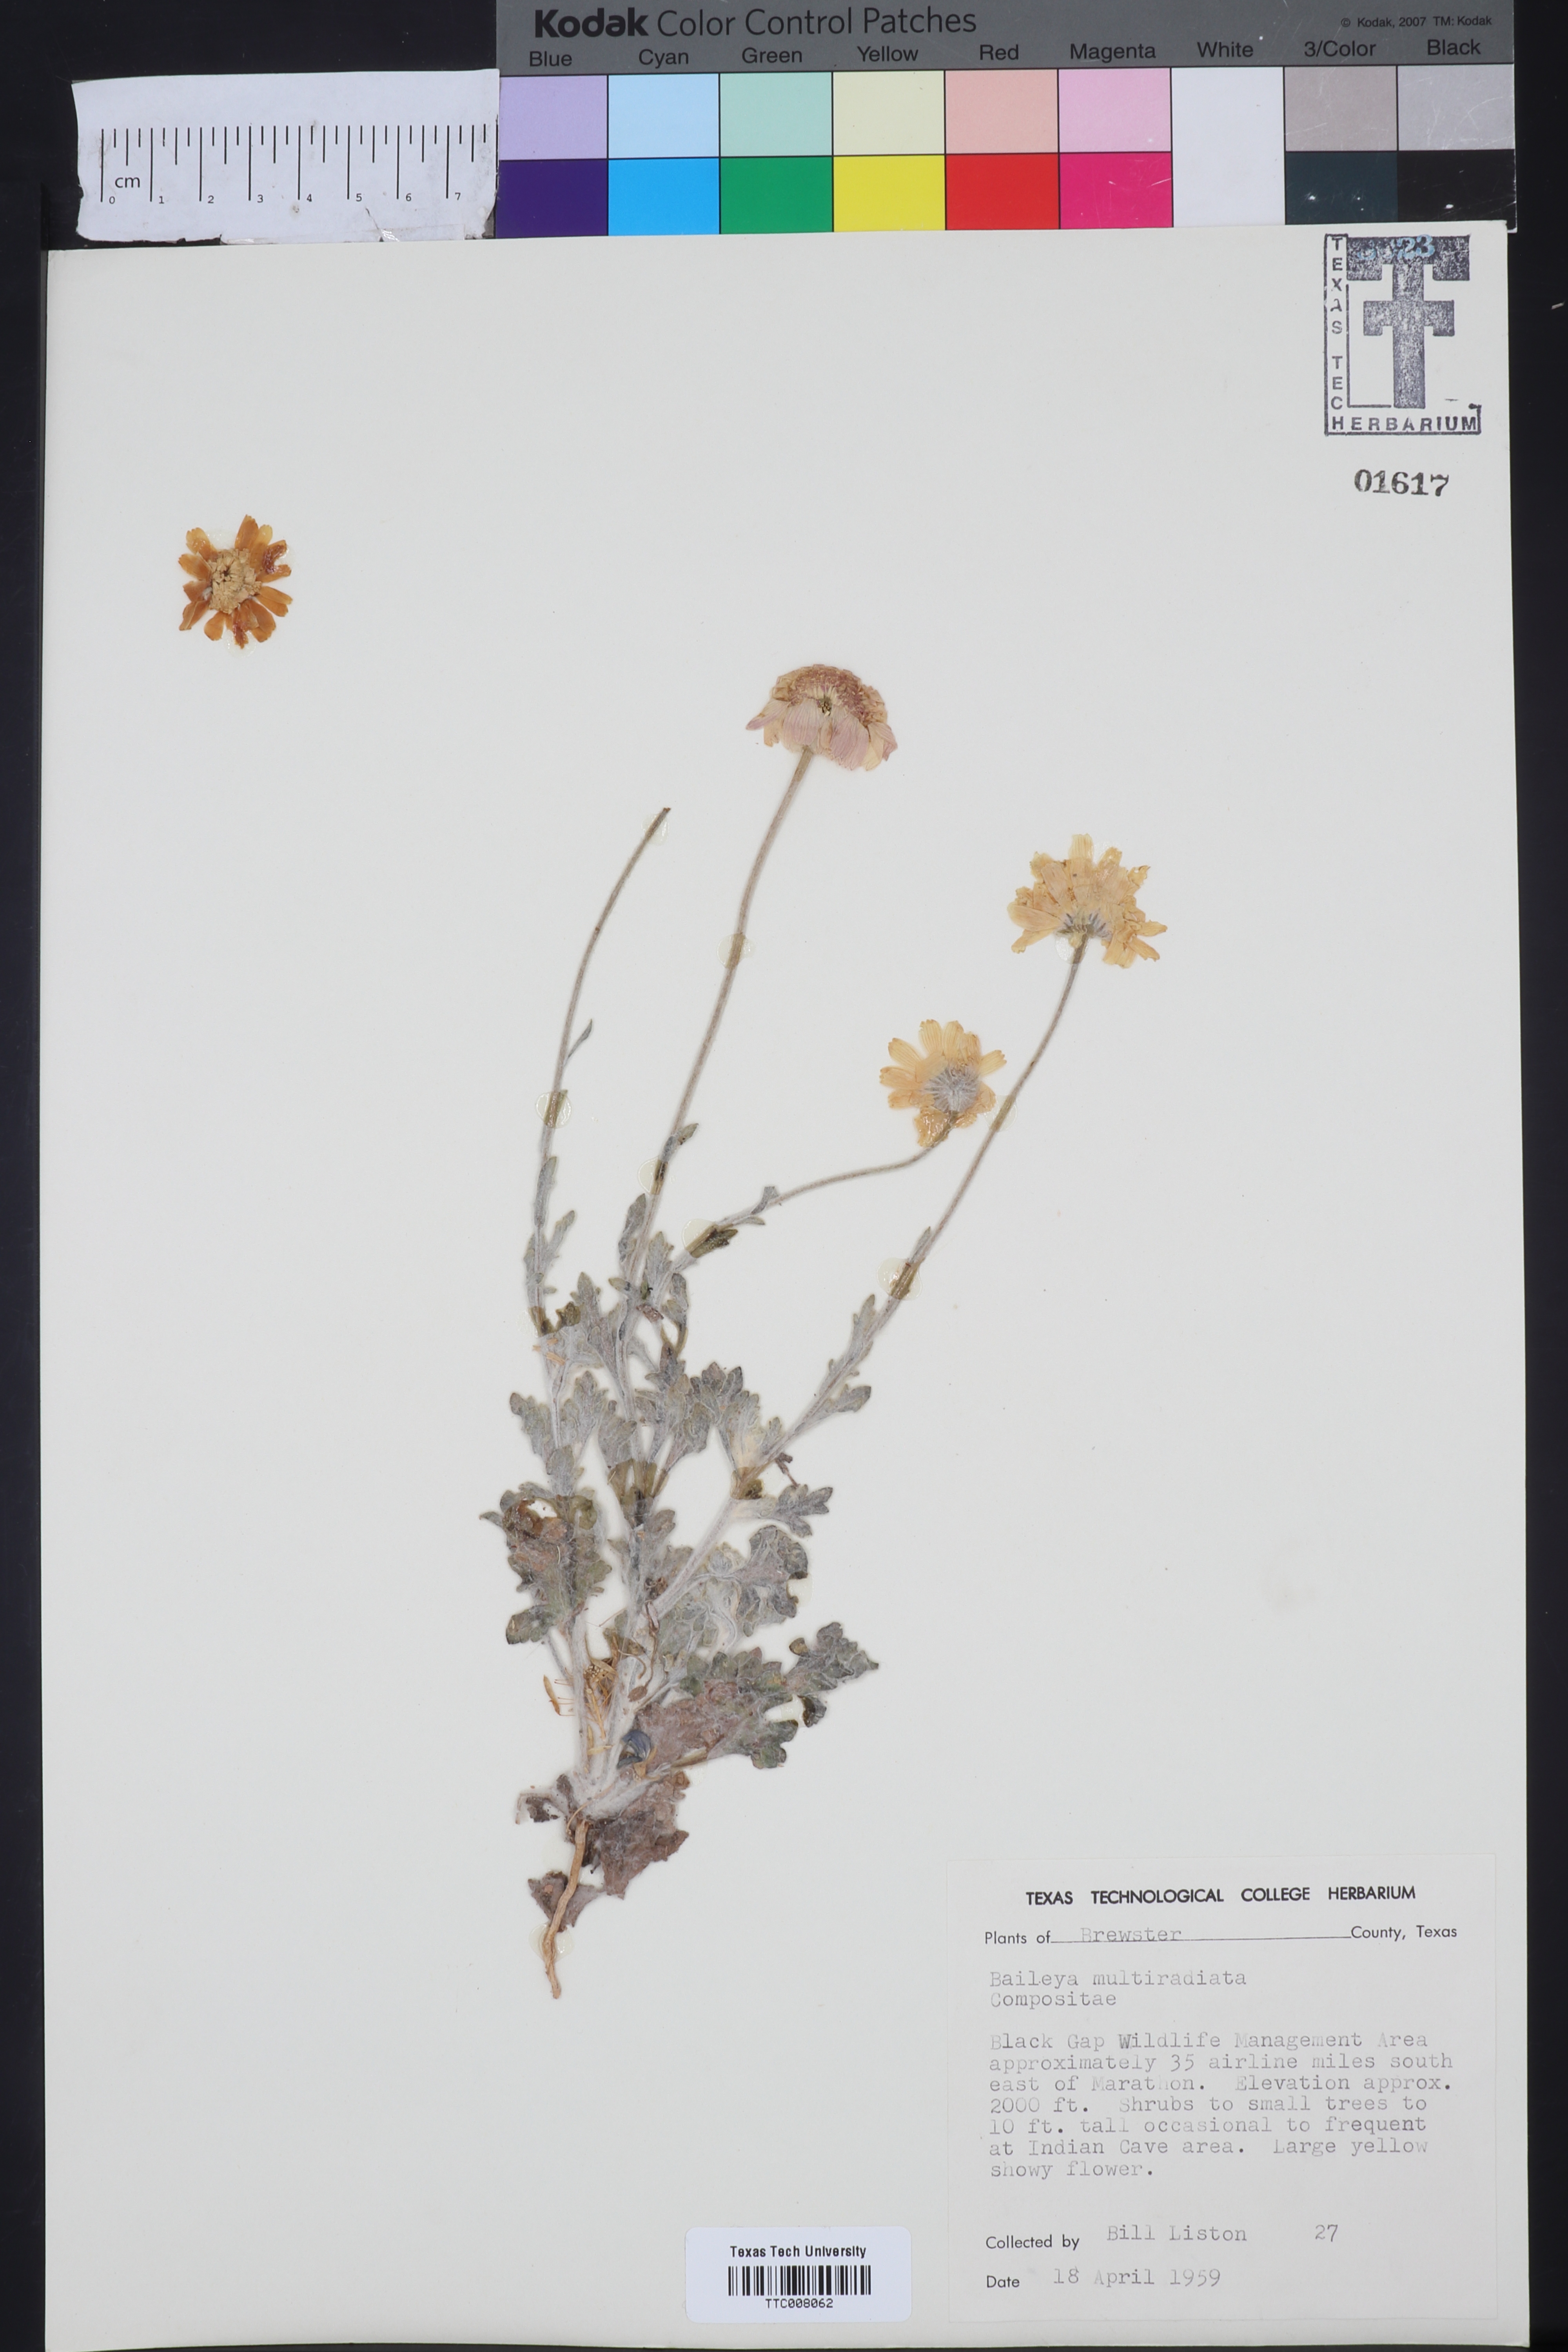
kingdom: Plantae
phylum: Tracheophyta
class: Magnoliopsida
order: Asterales
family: Asteraceae
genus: Baileya
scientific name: Baileya multiradiata
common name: Desert-marigold
